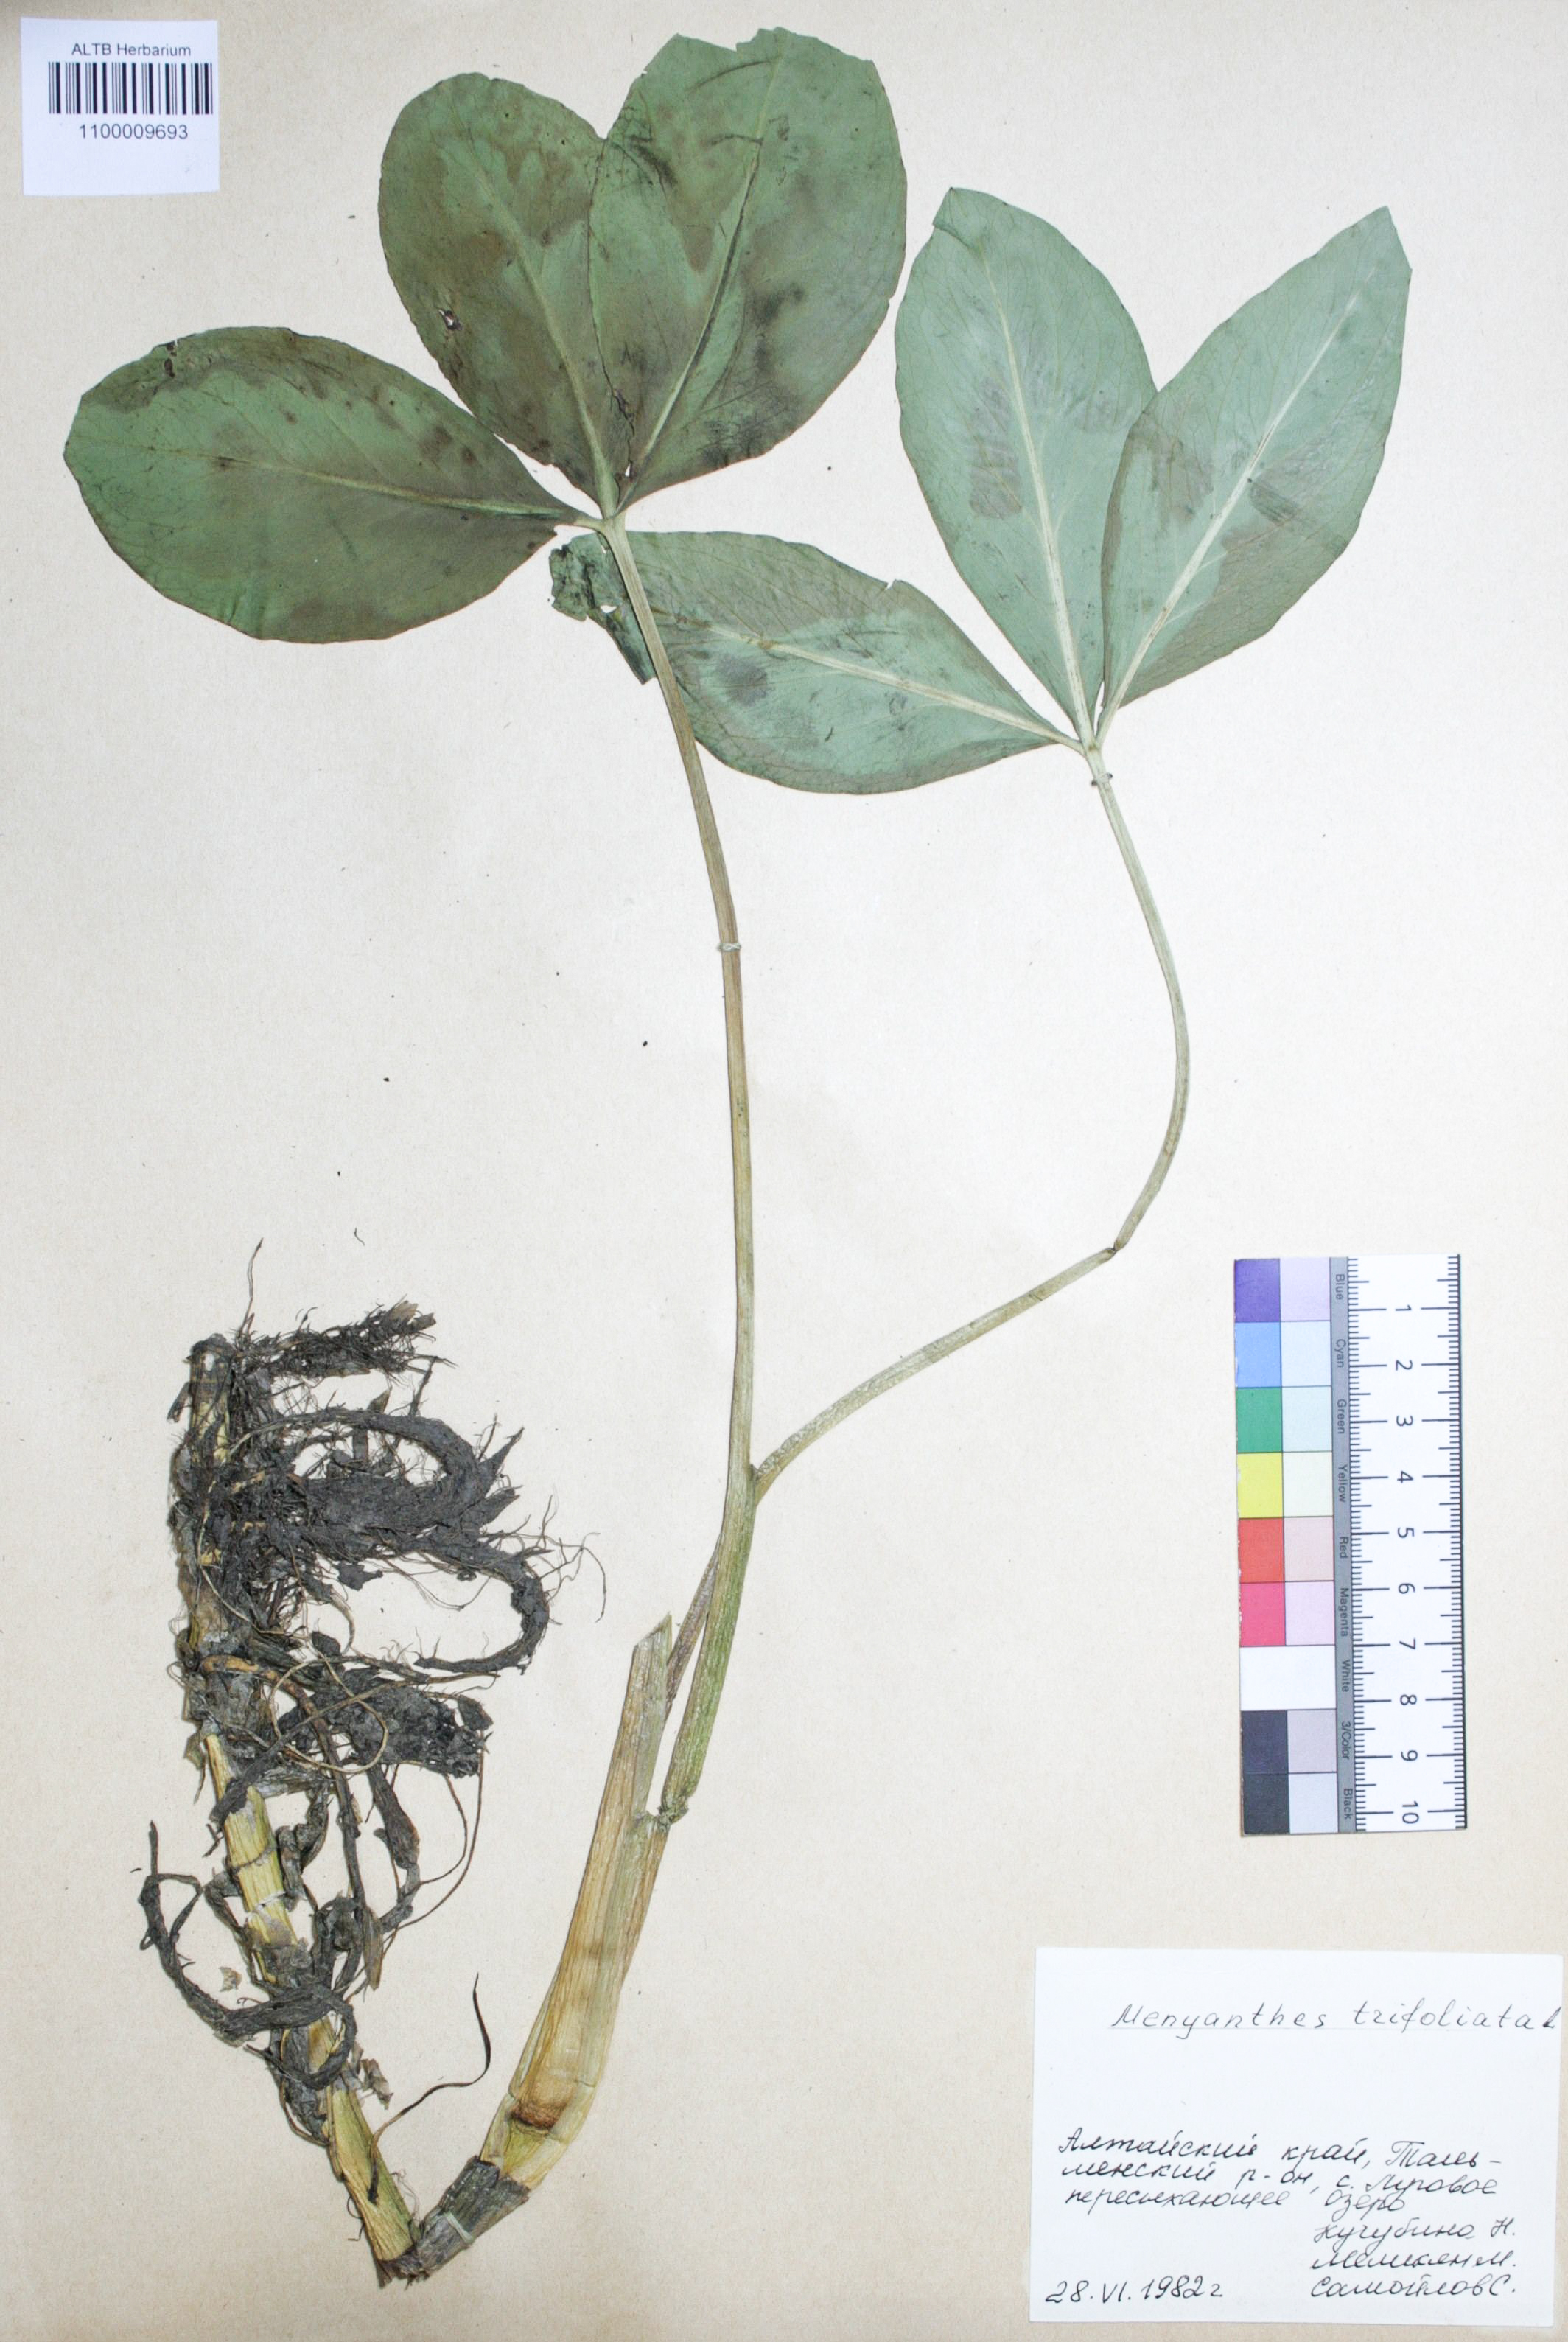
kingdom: Plantae
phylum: Tracheophyta
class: Magnoliopsida
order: Asterales
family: Menyanthaceae
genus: Menyanthes
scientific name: Menyanthes trifoliata
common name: Bogbean
